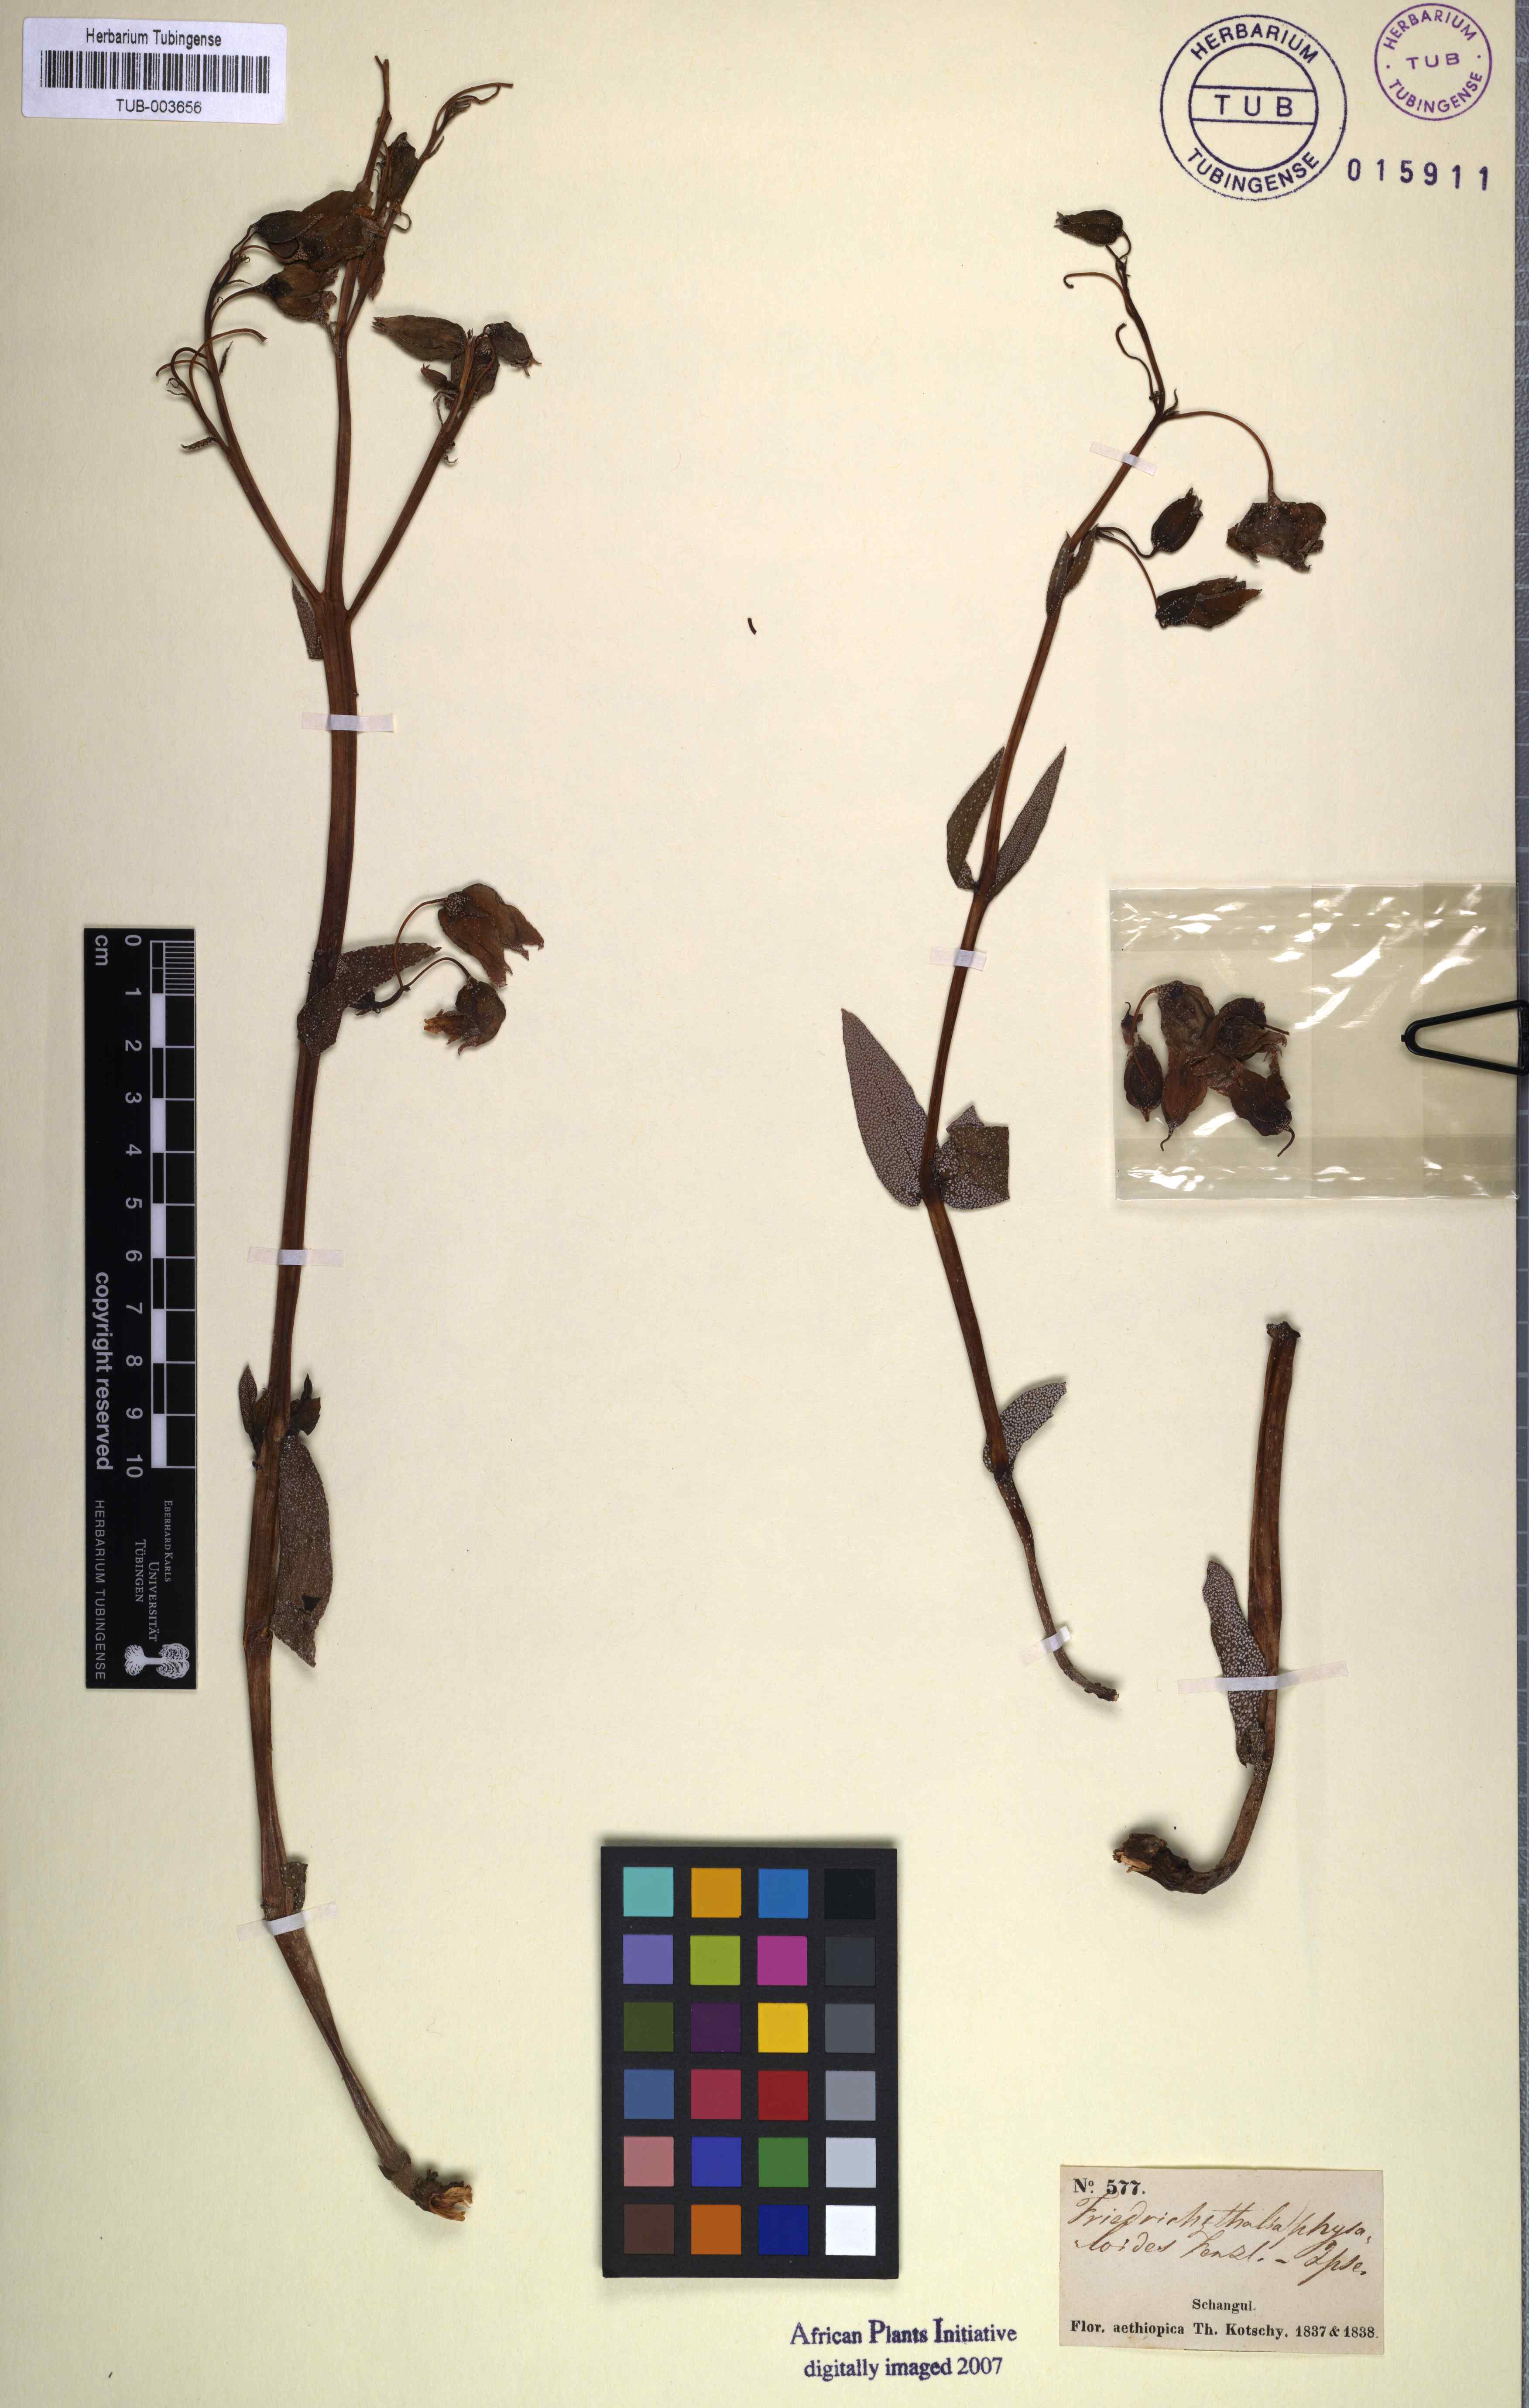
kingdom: Plantae
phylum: Tracheophyta
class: Magnoliopsida
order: Boraginales
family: Boraginaceae
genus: Trichodesma
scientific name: Trichodesma physaloides
